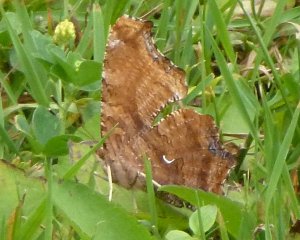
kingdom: Animalia
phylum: Arthropoda
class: Insecta
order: Lepidoptera
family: Nymphalidae
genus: Polygonia
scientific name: Polygonia comma
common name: Eastern Comma
